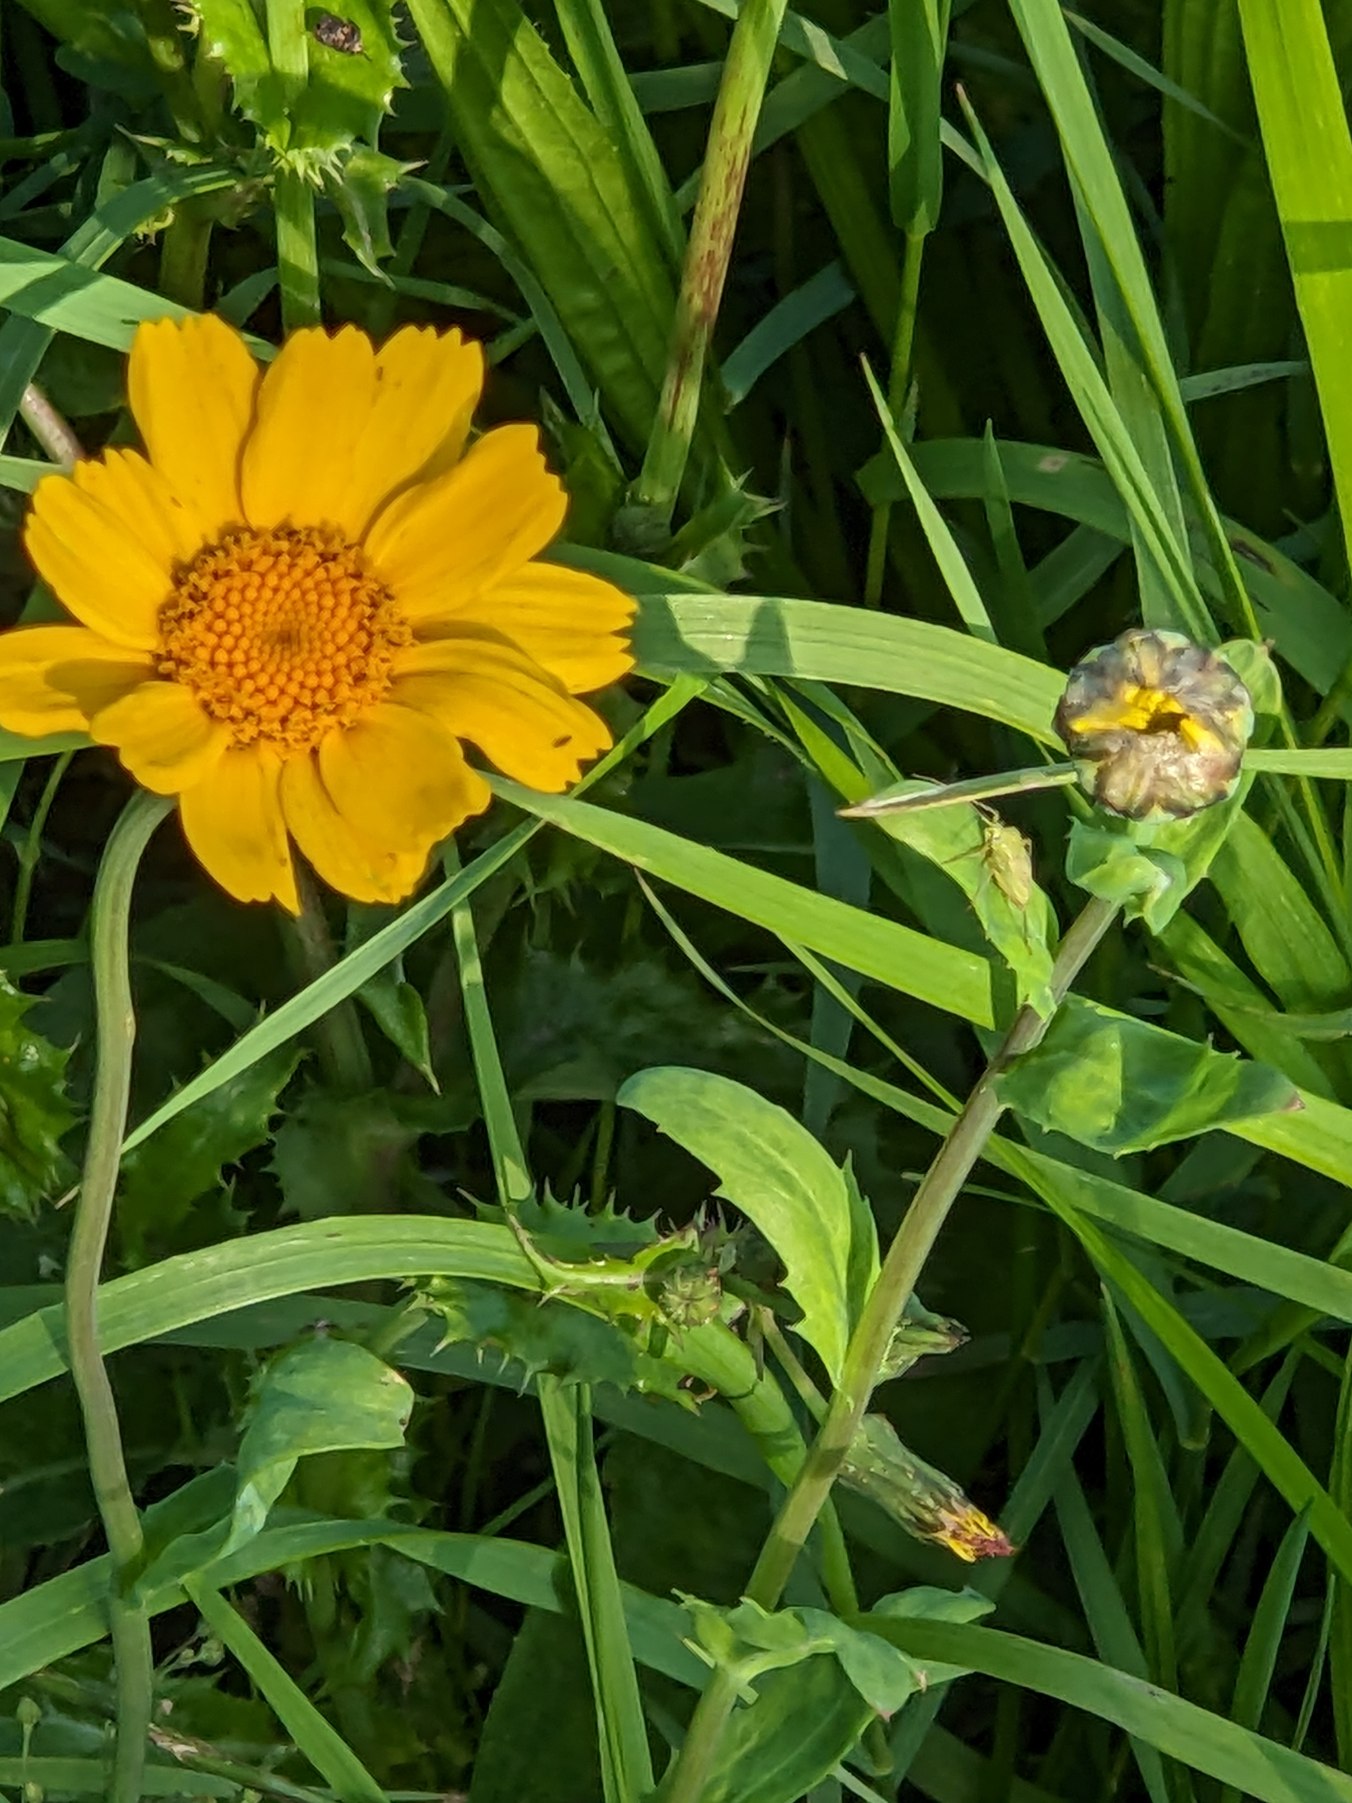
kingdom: Plantae
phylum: Tracheophyta
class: Magnoliopsida
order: Asterales
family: Asteraceae
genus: Glebionis
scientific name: Glebionis segetum
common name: Gul okseøje
